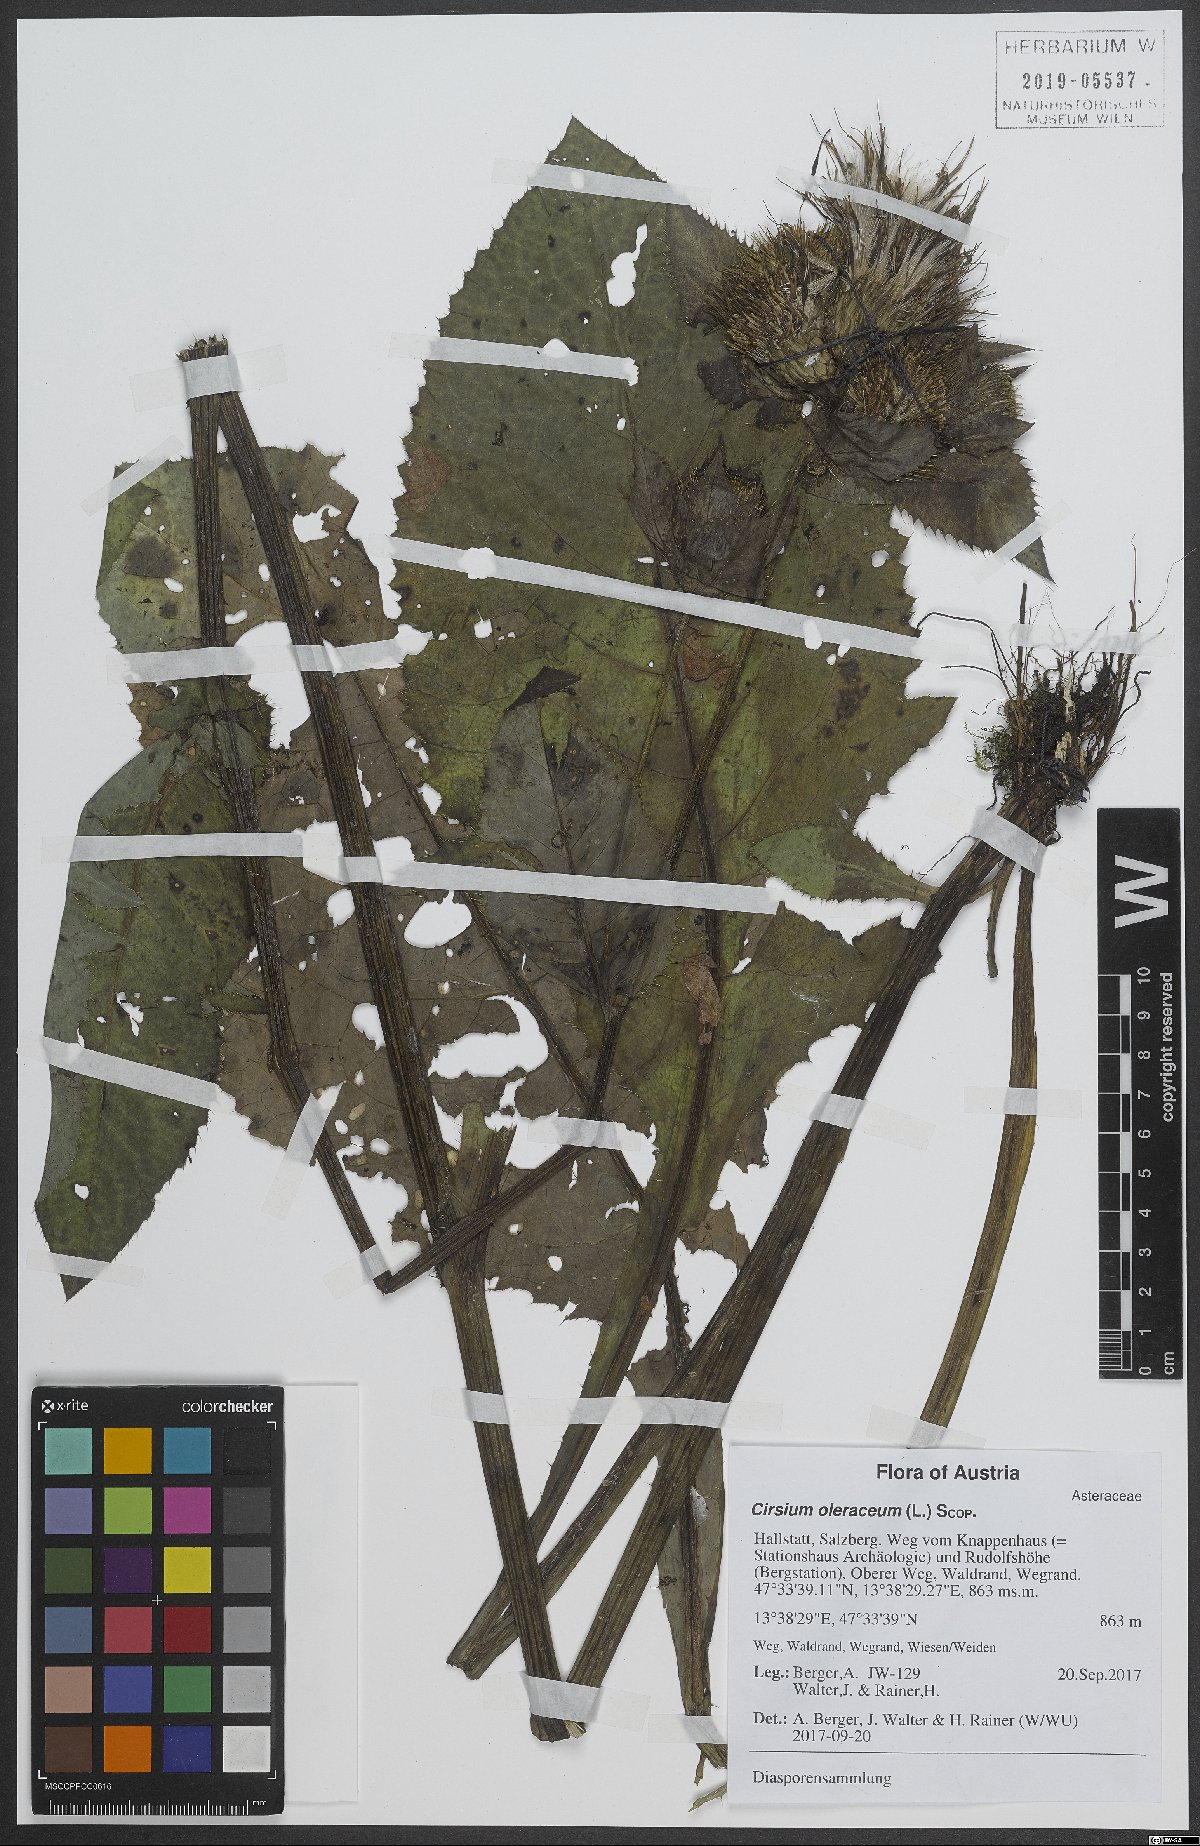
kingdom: Plantae
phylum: Tracheophyta
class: Magnoliopsida
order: Asterales
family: Asteraceae
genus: Cirsium
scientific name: Cirsium oleraceum
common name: Cabbage thistle
